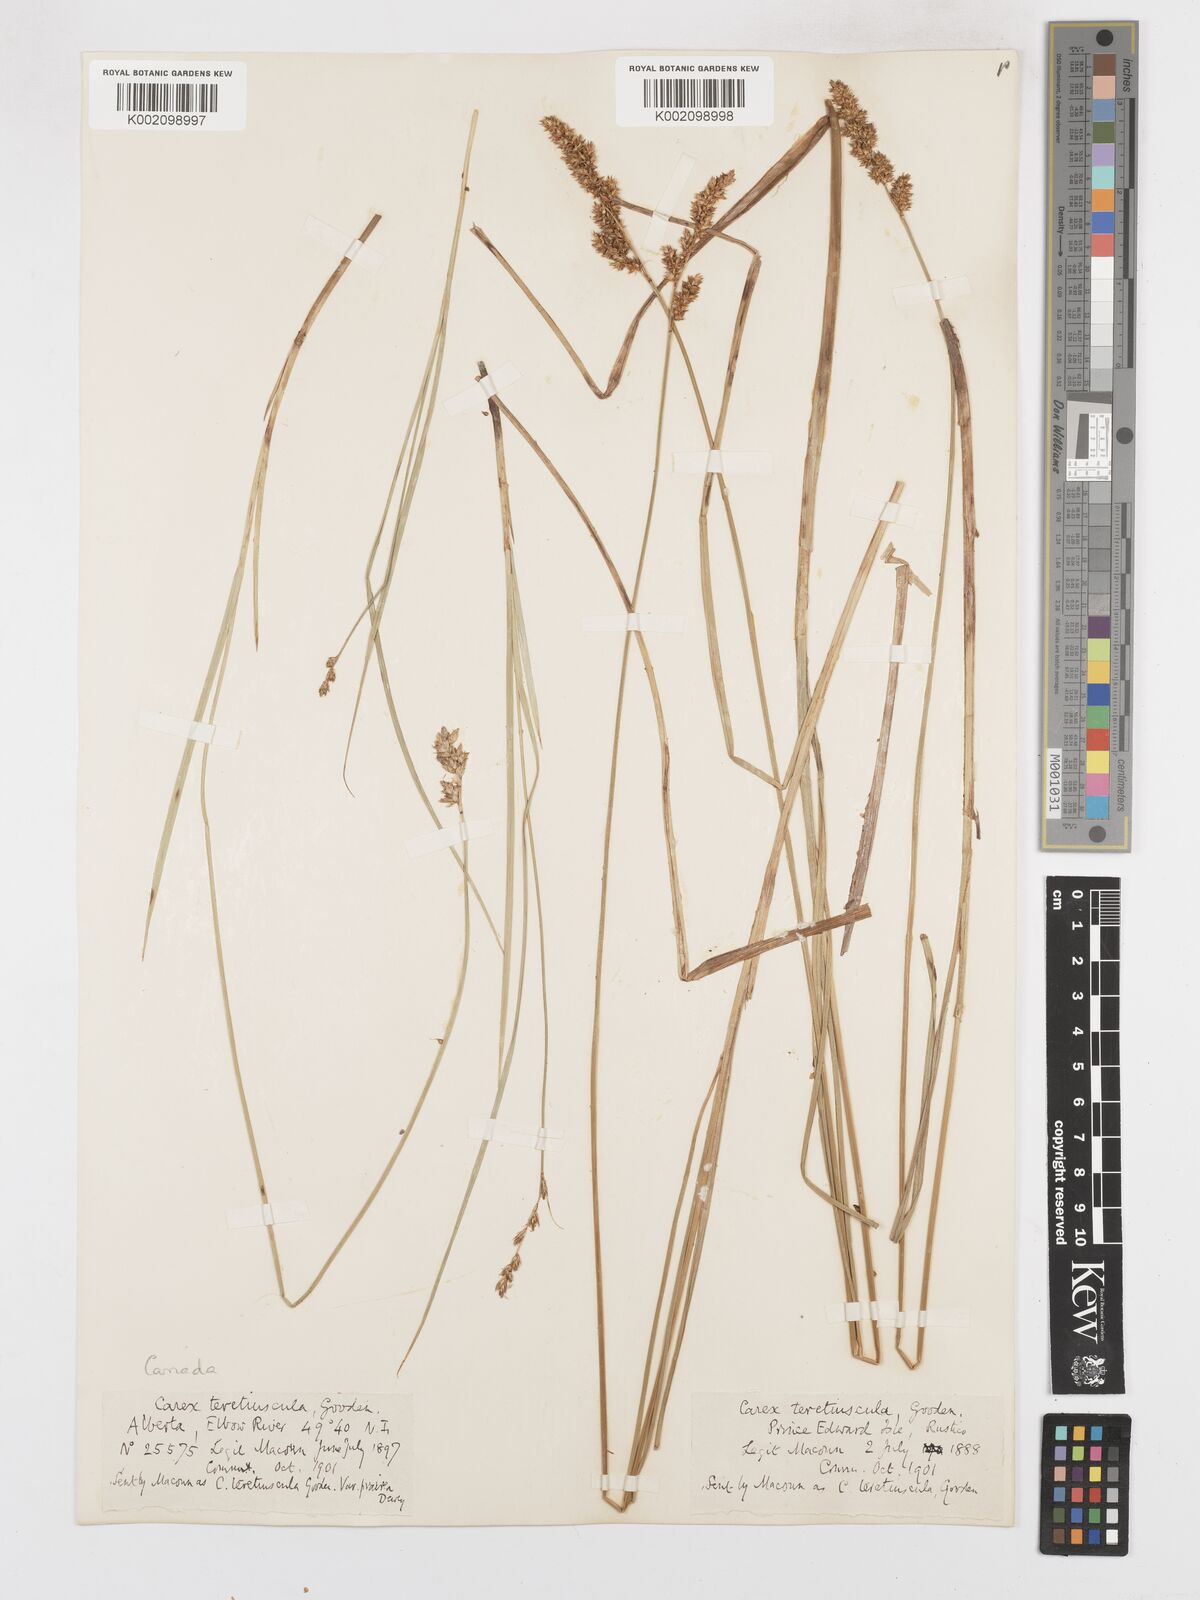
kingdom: Plantae
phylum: Tracheophyta
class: Liliopsida
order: Poales
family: Cyperaceae
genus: Carex
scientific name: Carex diandra
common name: Lesser tussock-sedge
